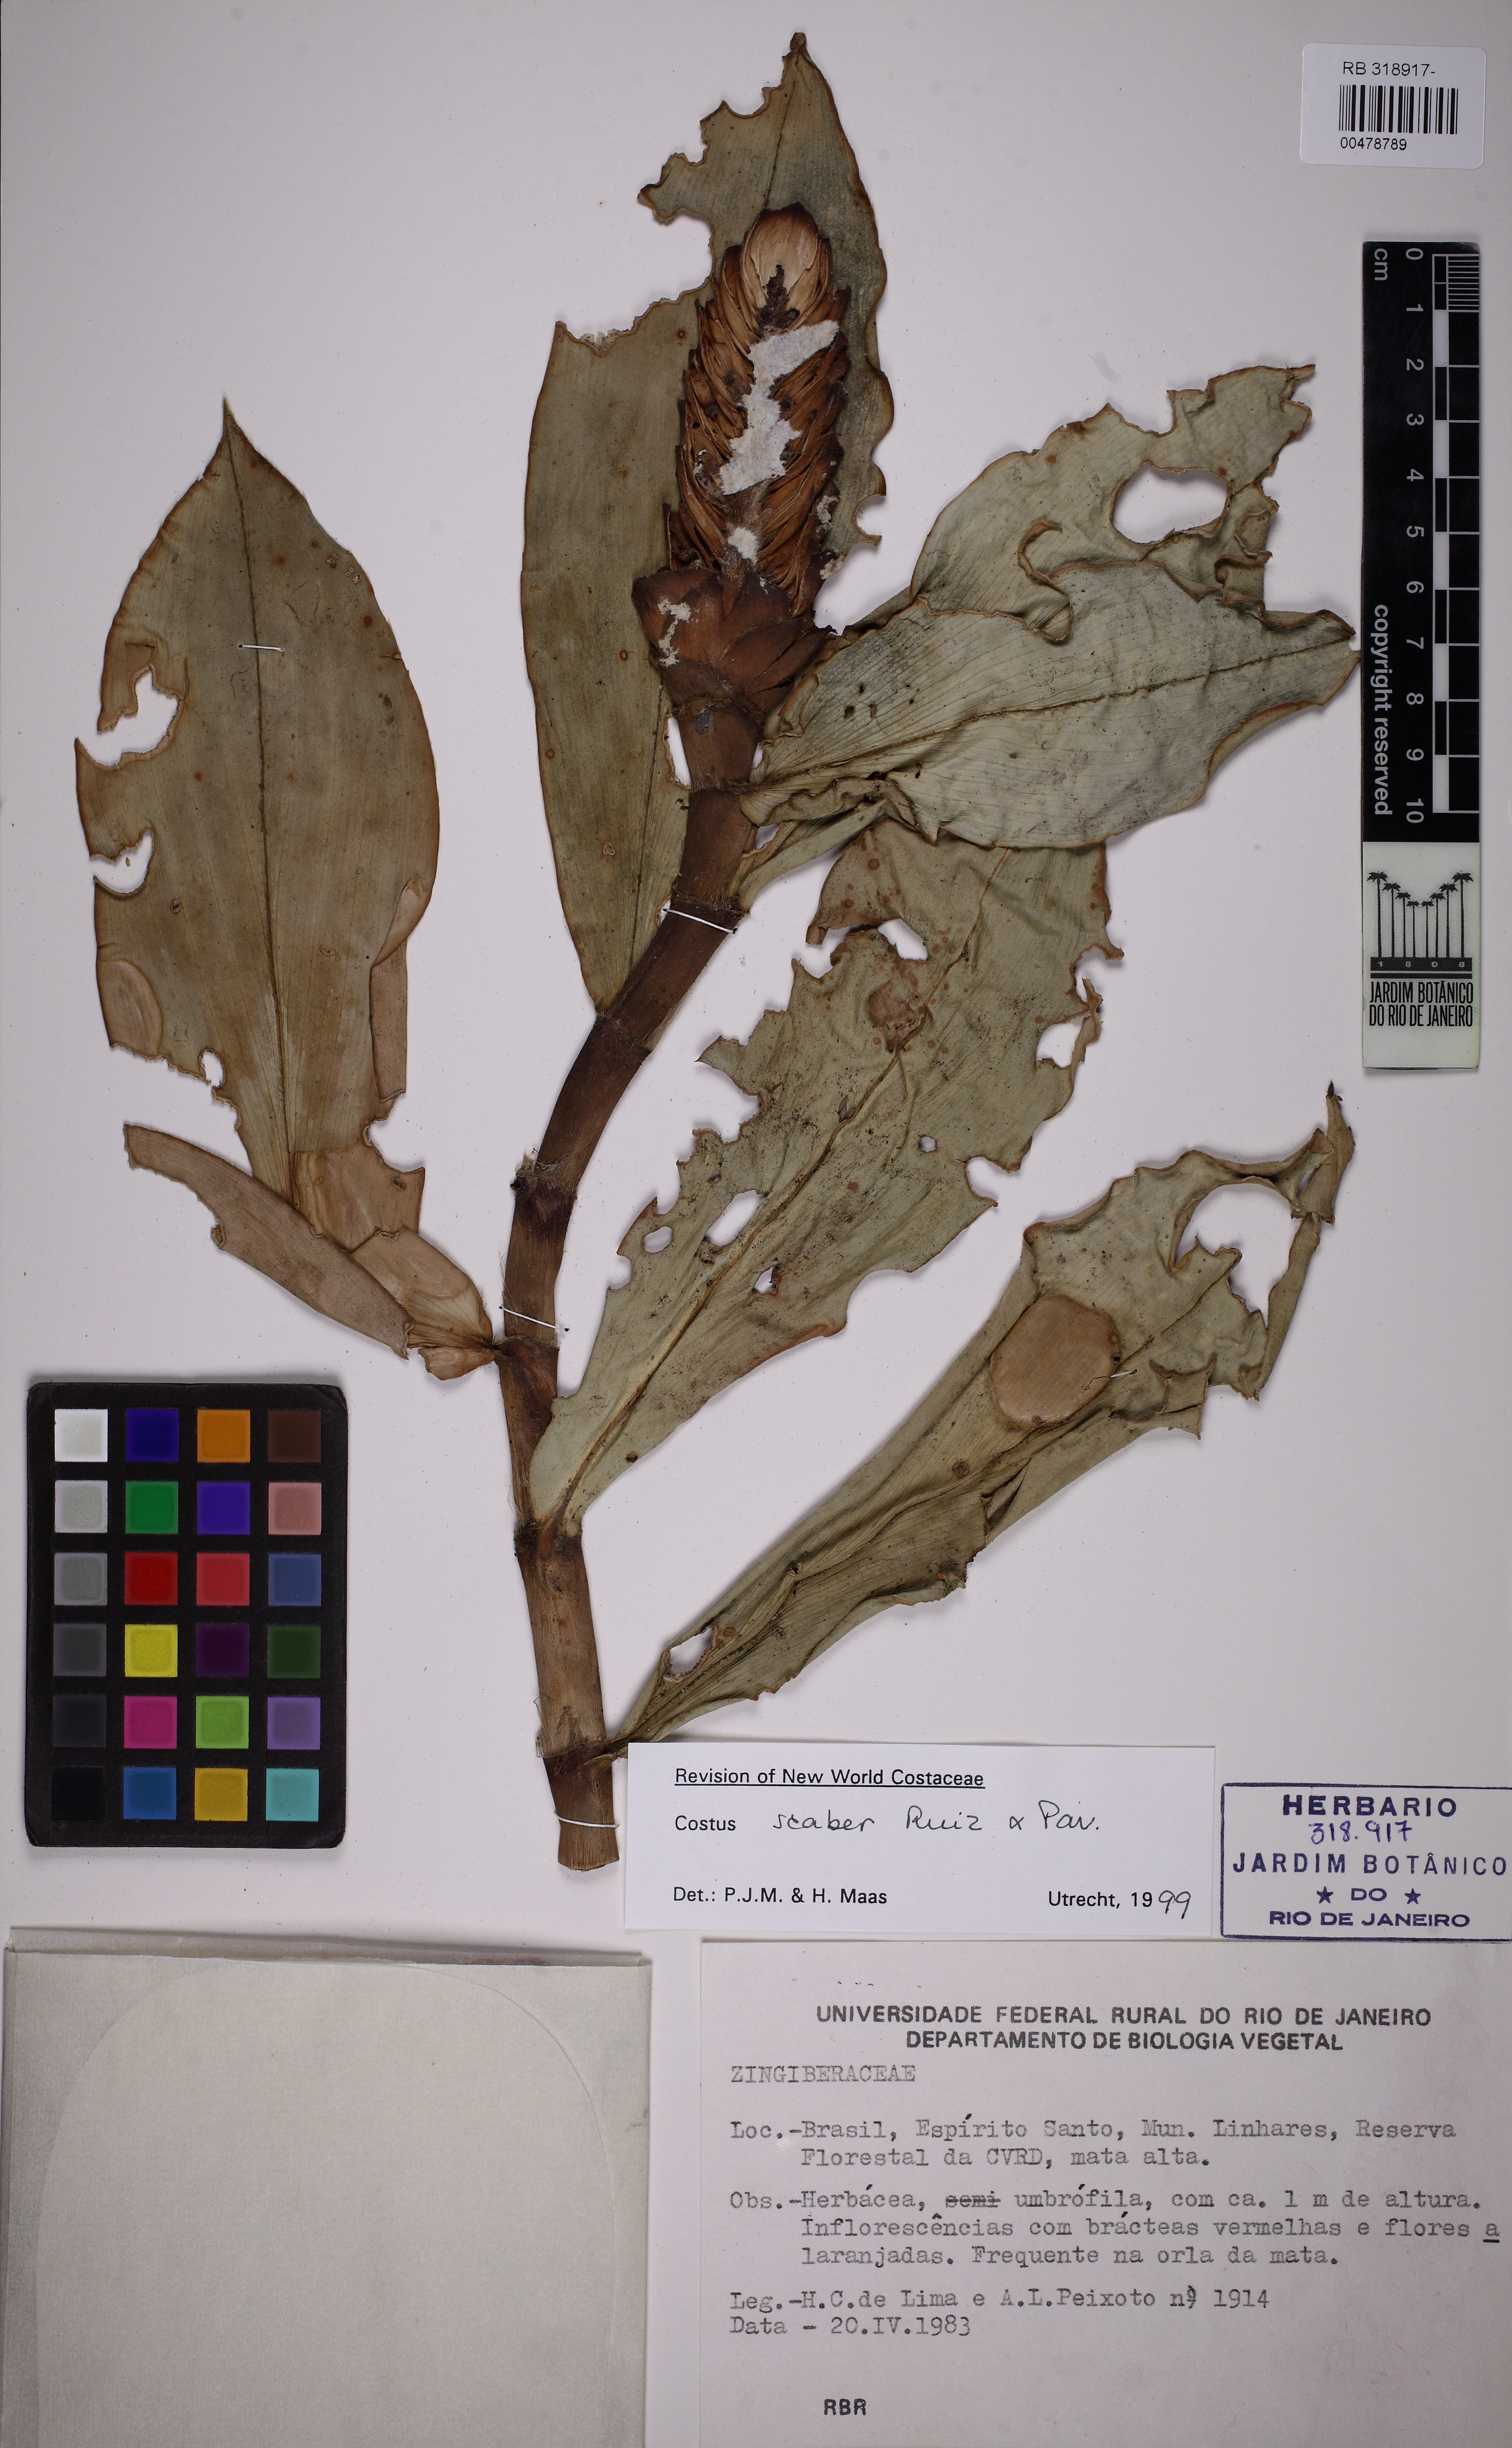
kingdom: Plantae
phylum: Tracheophyta
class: Liliopsida
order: Zingiberales
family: Costaceae
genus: Costus
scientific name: Costus scaber
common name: Spiral head ginger
